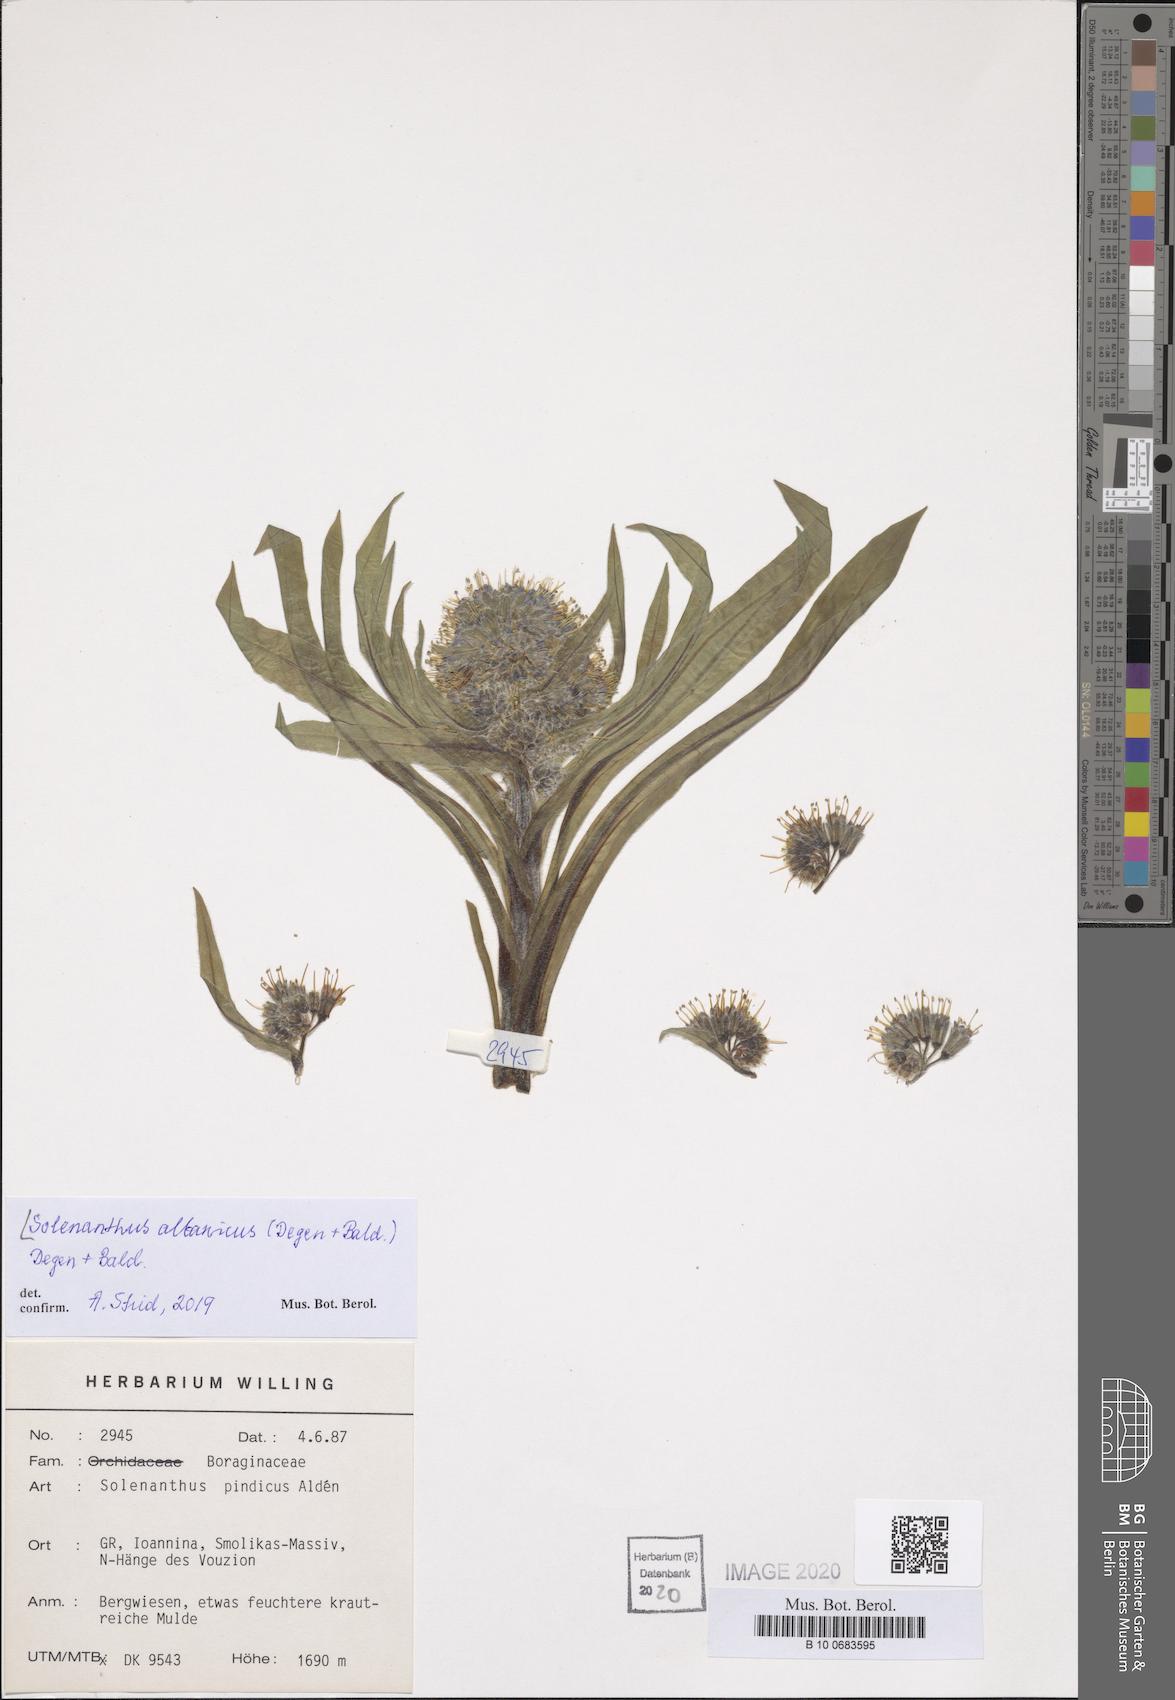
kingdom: Plantae
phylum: Tracheophyta
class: Magnoliopsida
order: Boraginales
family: Boraginaceae
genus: Solenanthus
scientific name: Solenanthus albanicus
